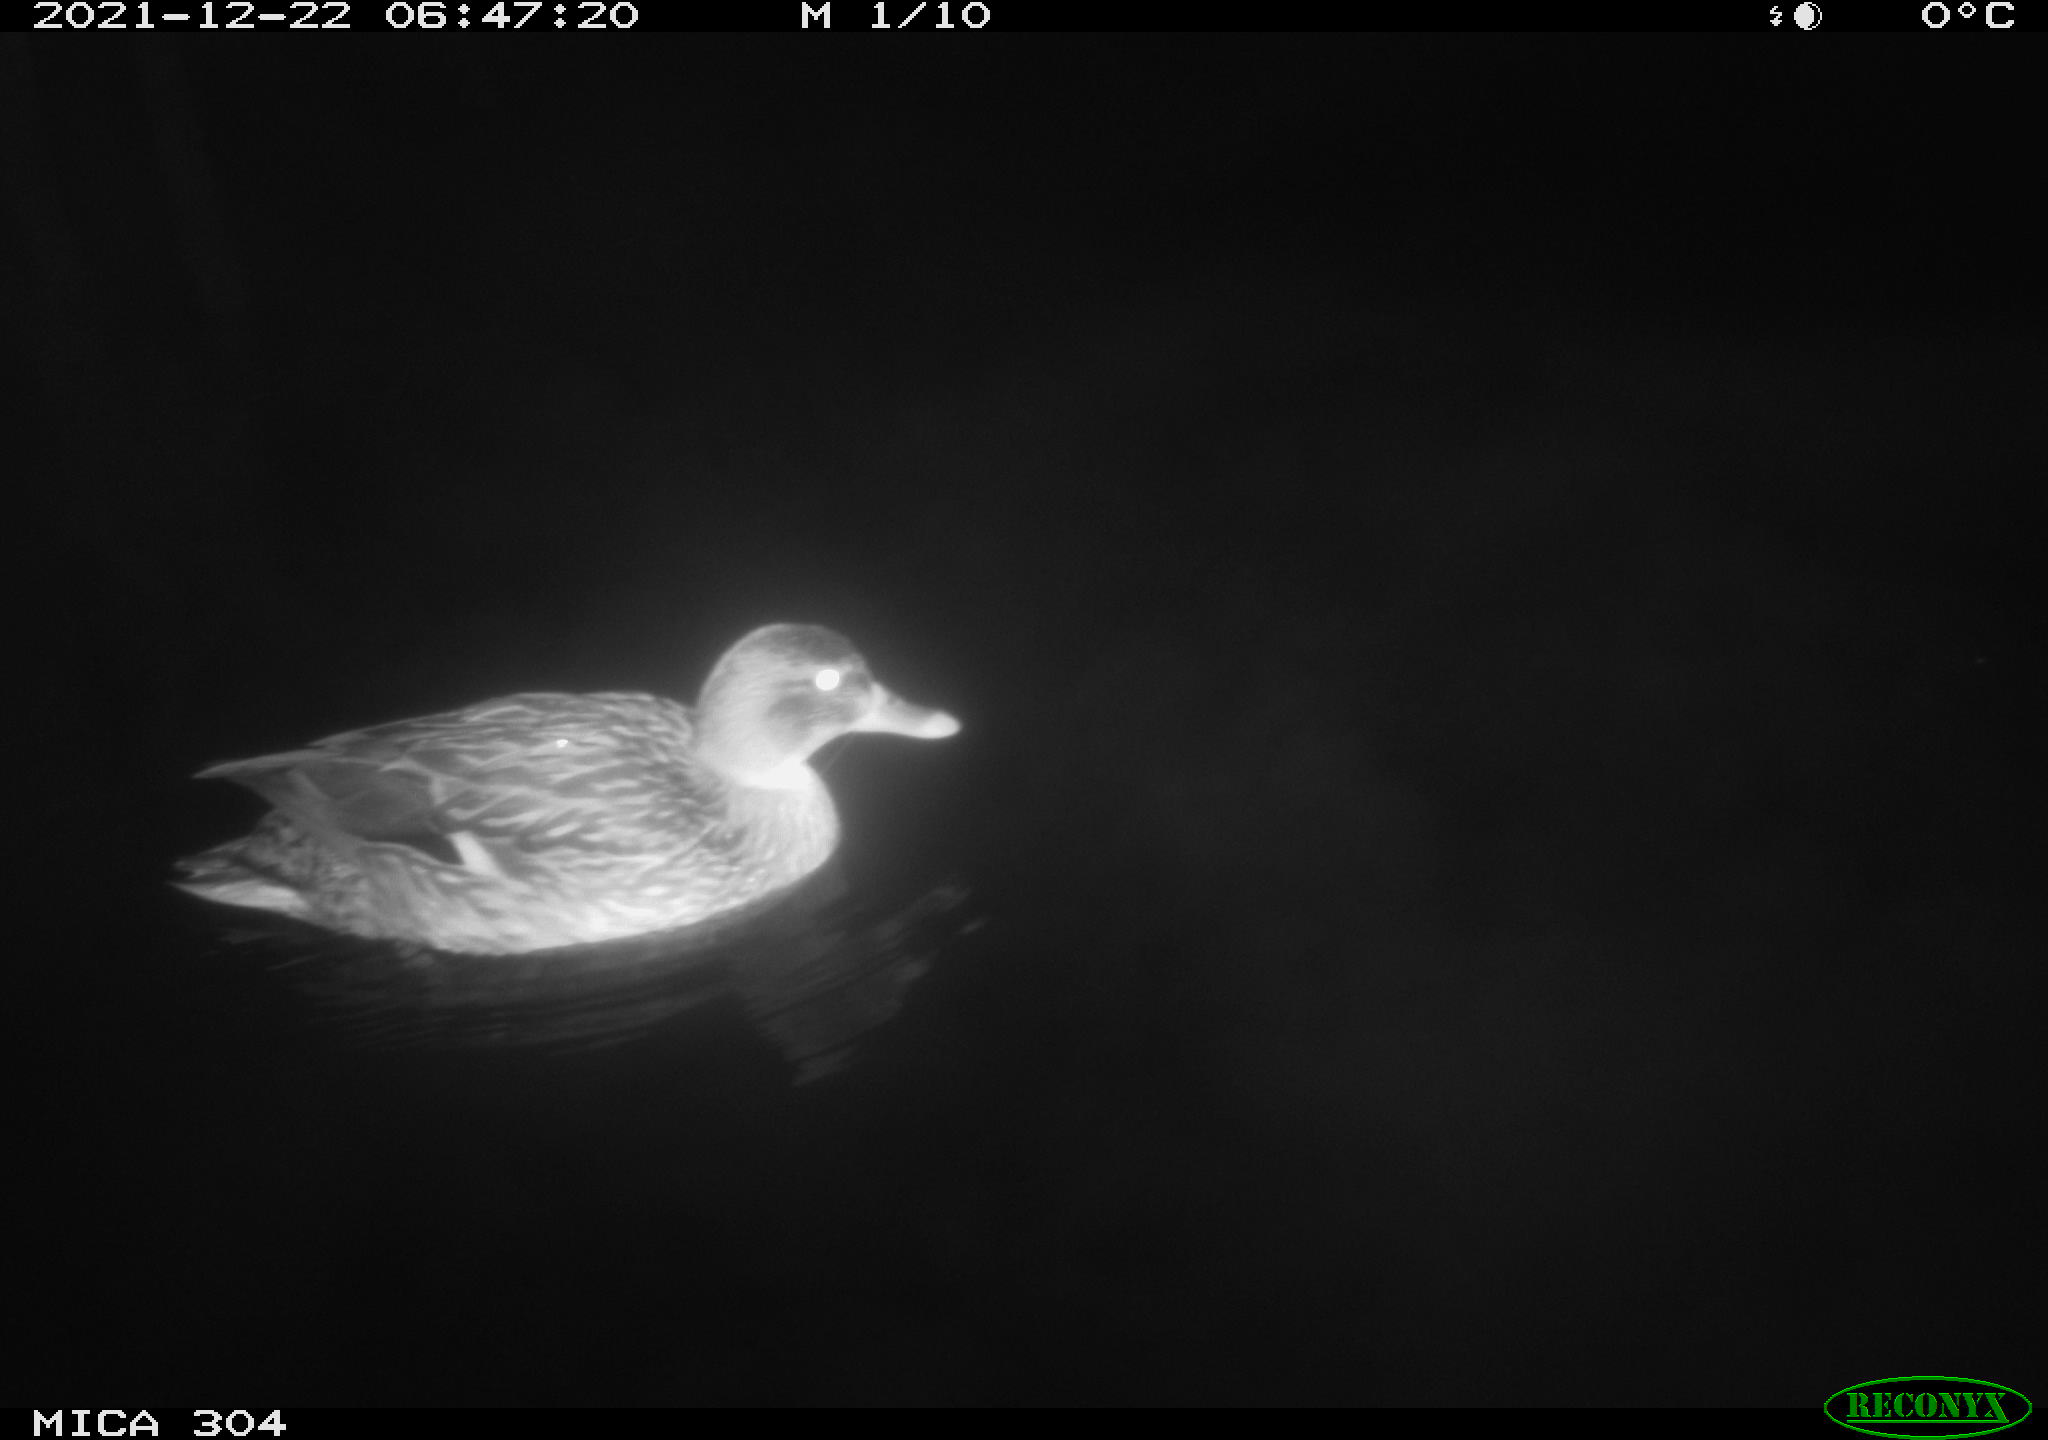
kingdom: Animalia
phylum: Chordata
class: Aves
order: Anseriformes
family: Anatidae
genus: Anas
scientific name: Anas platyrhynchos
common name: Mallard
